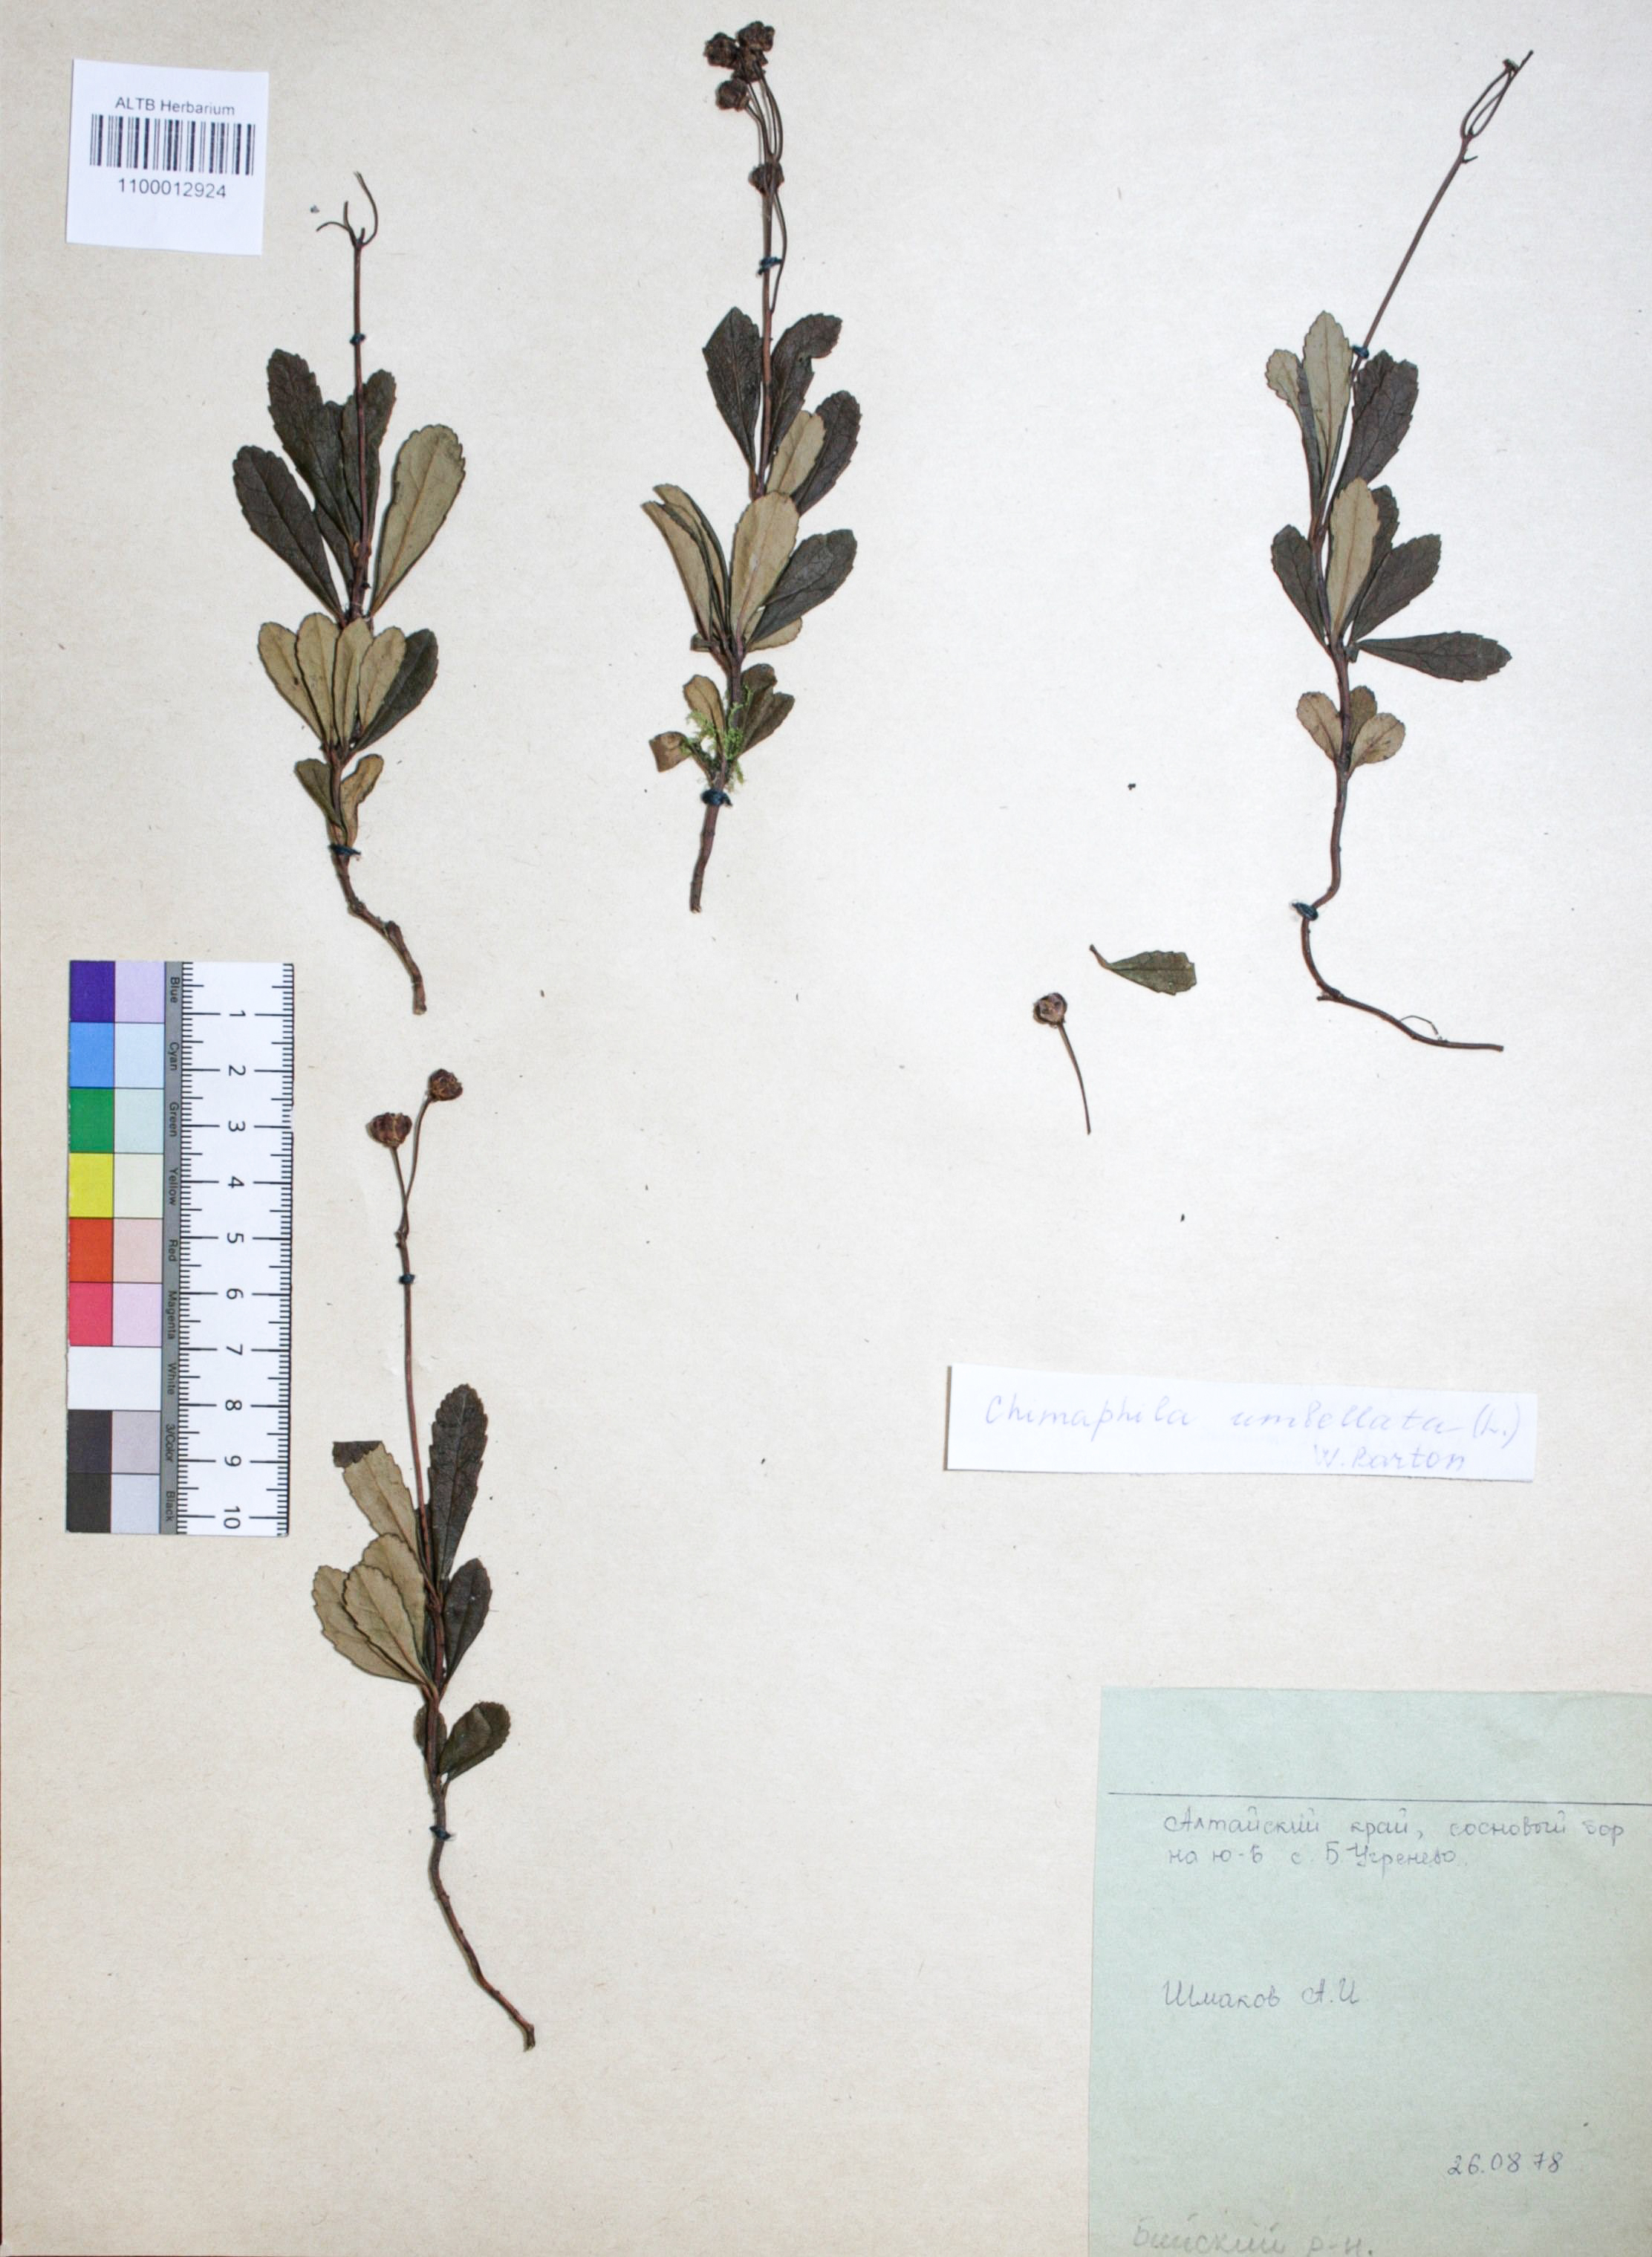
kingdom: Plantae
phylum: Tracheophyta
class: Magnoliopsida
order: Ericales
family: Ericaceae
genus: Chimaphila
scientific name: Chimaphila umbellata
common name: Pipsissewa
